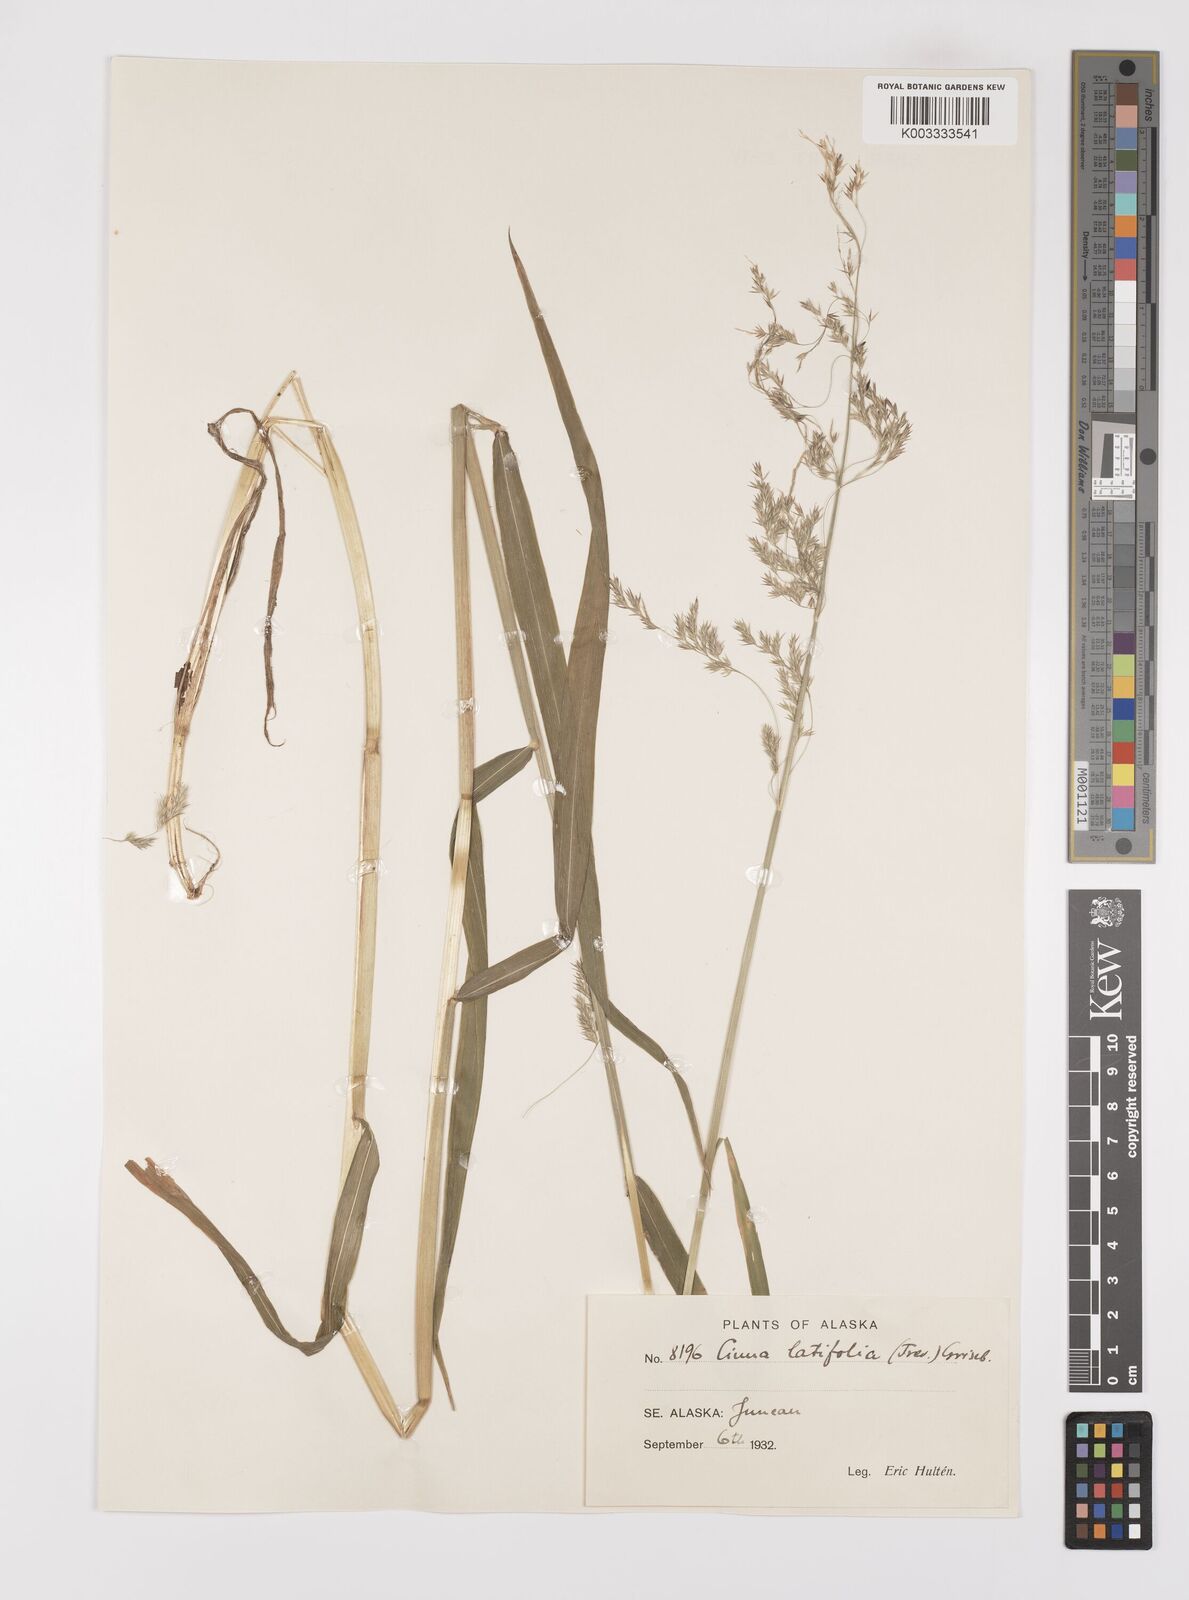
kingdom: Plantae
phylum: Tracheophyta
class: Liliopsida
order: Poales
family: Poaceae
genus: Cinna
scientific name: Cinna latifolia
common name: Drooping woodreed
